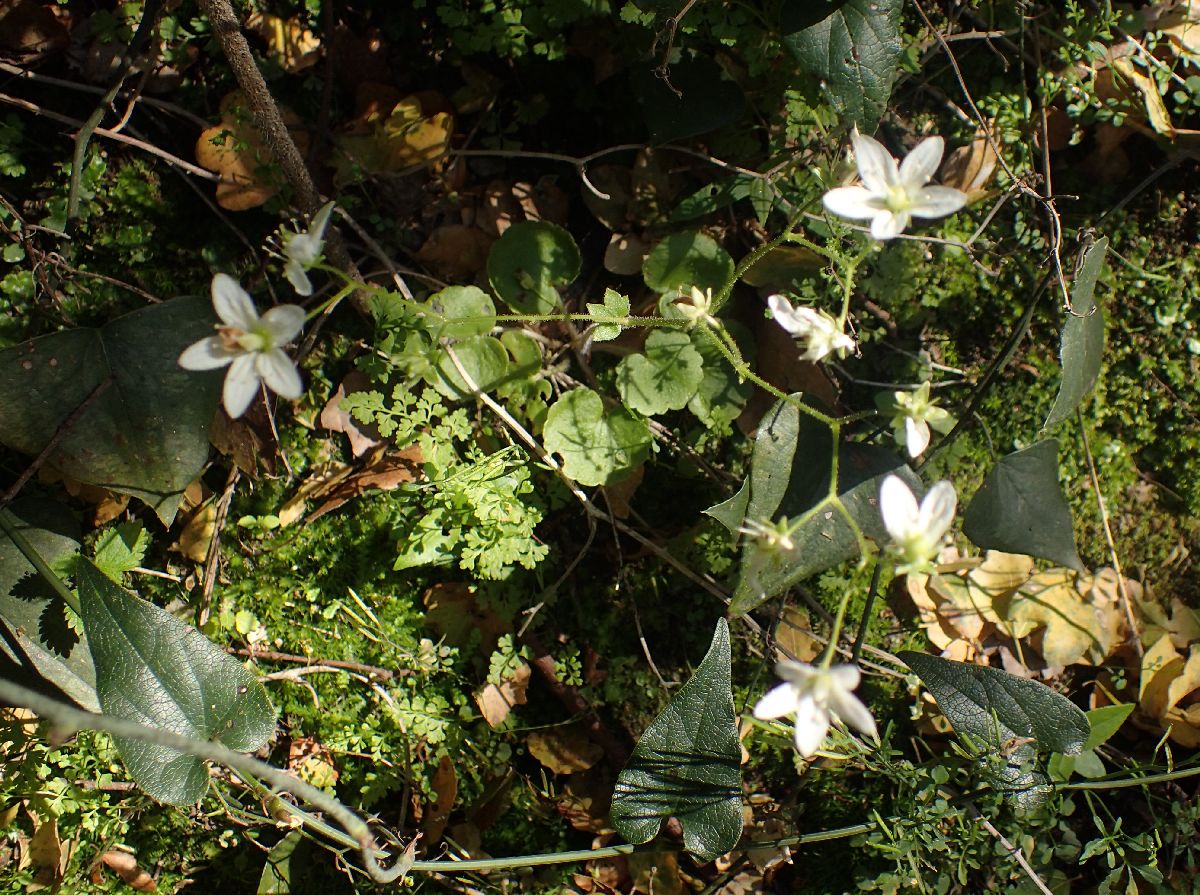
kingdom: Plantae
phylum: Tracheophyta
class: Magnoliopsida
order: Saxifragales
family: Saxifragaceae
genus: Saxifraga
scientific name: Saxifraga rotundifolia
